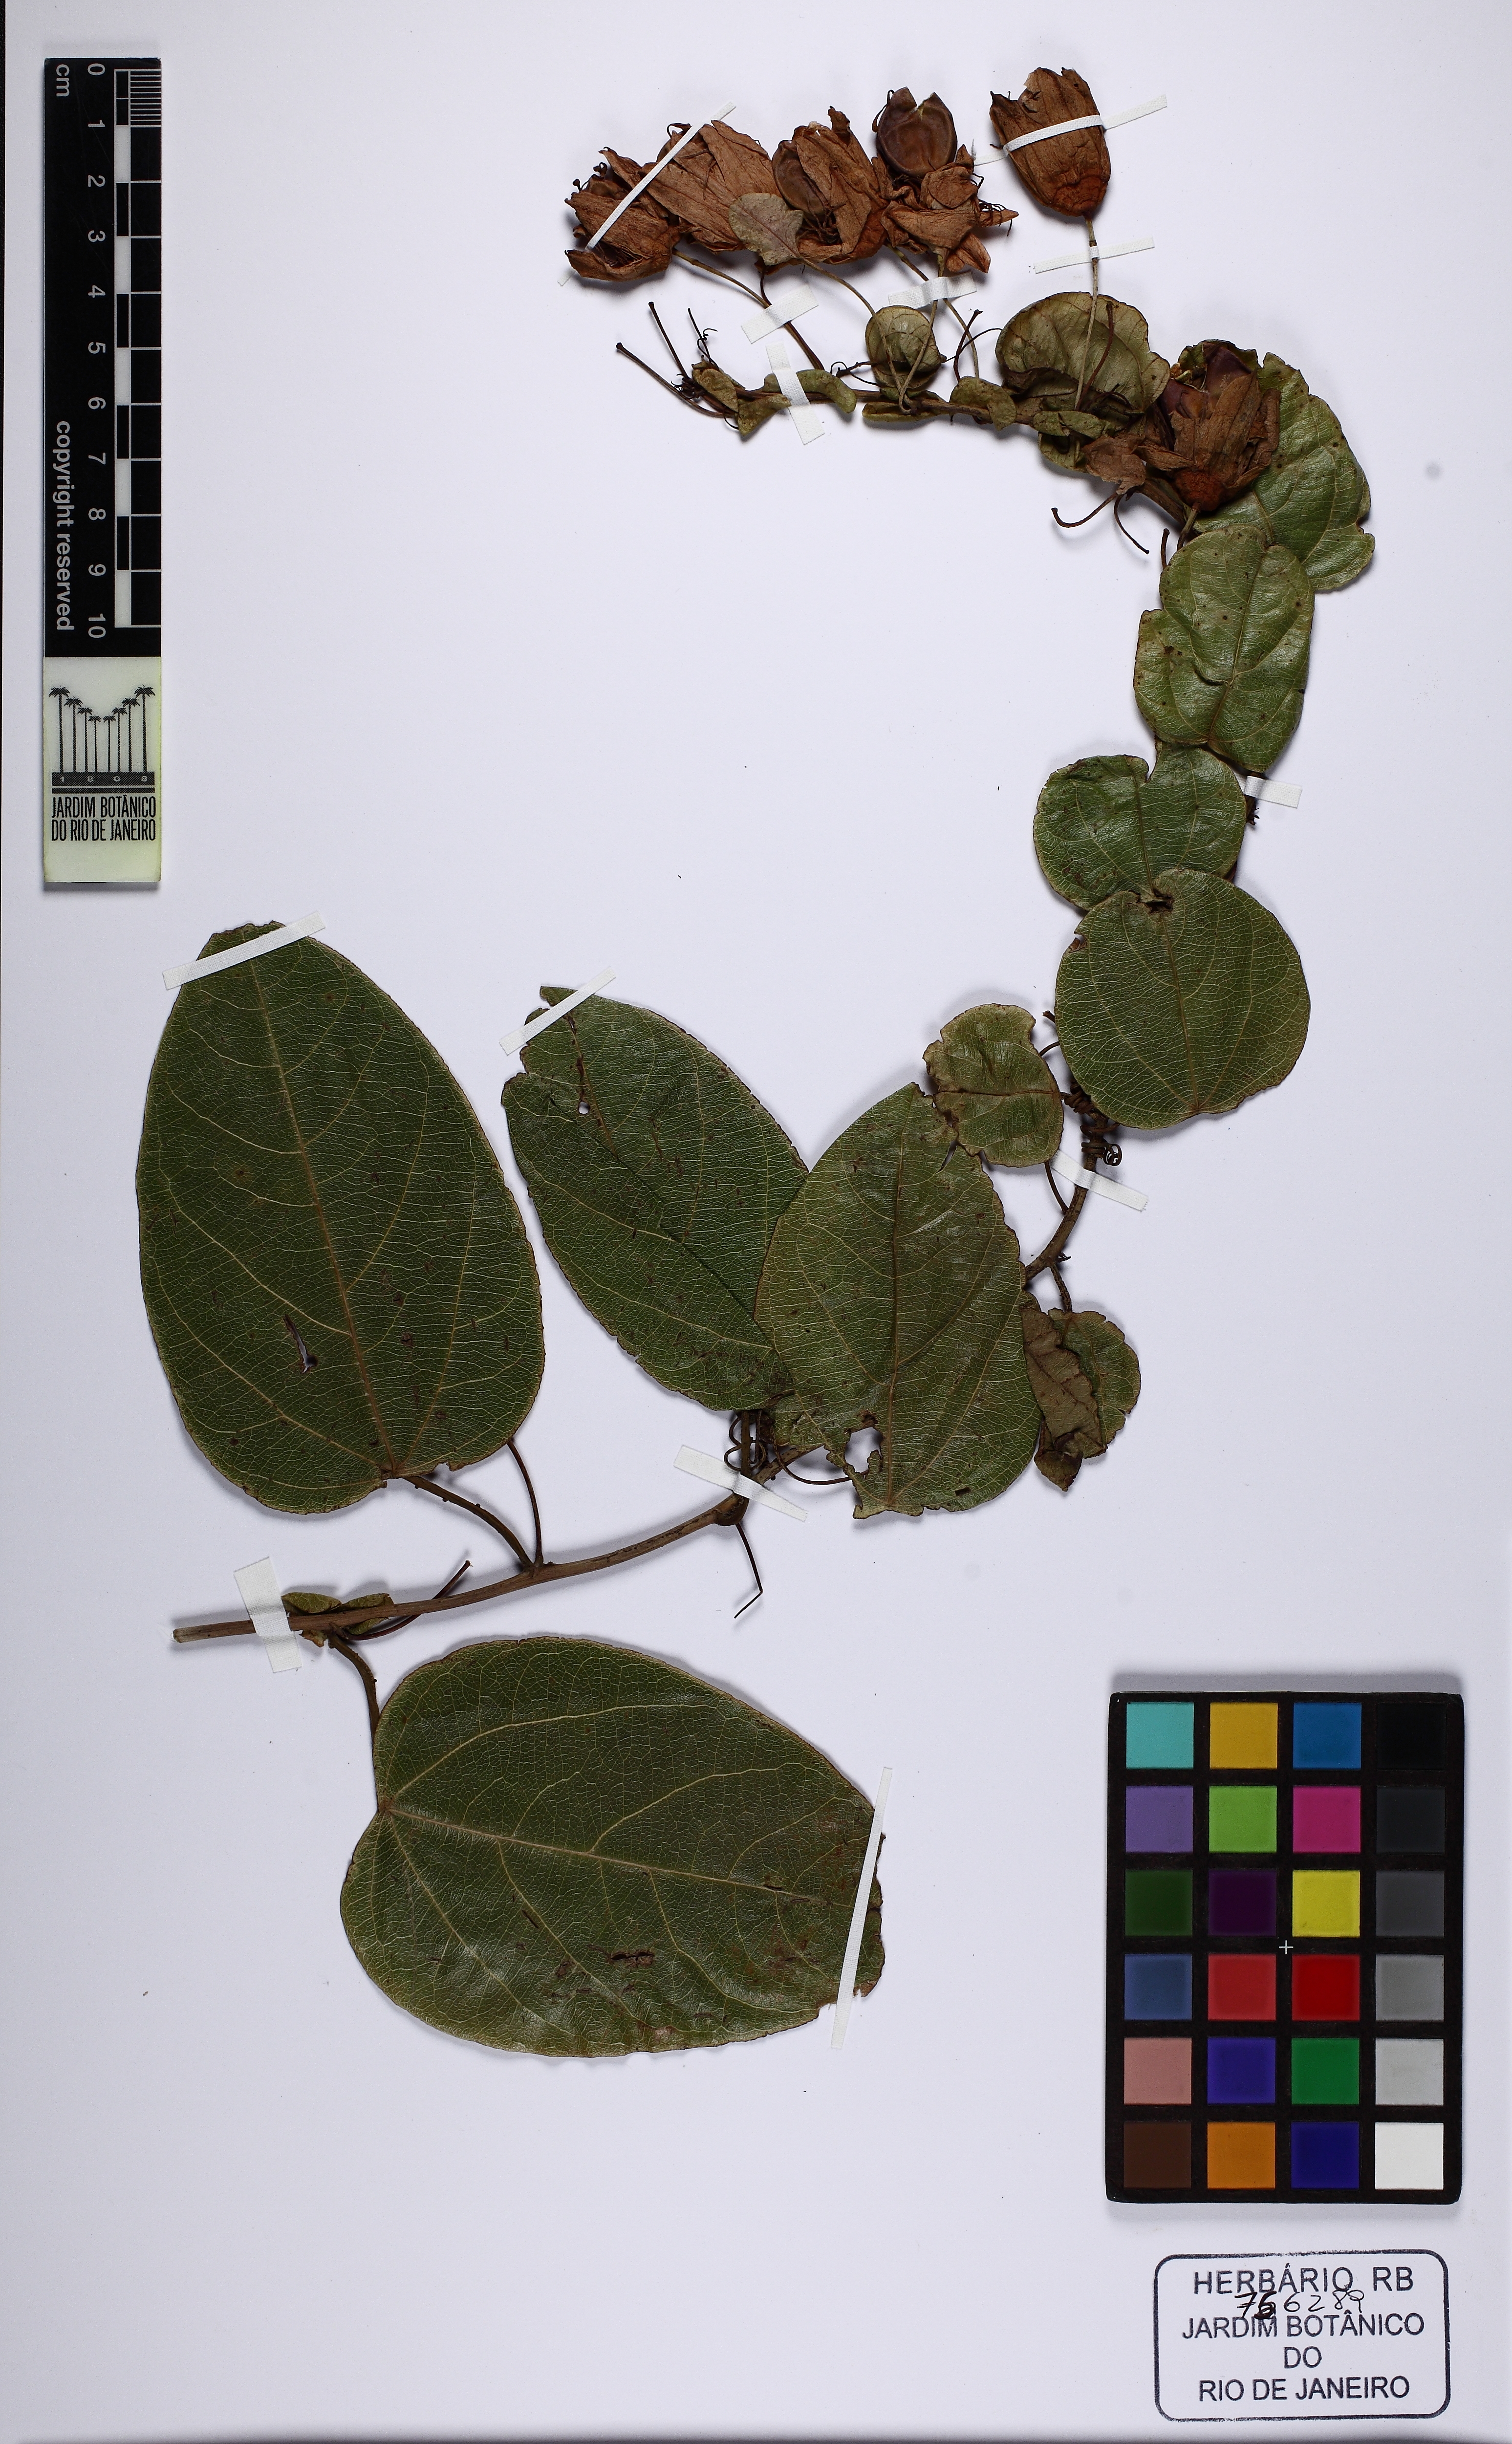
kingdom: Plantae
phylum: Tracheophyta
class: Magnoliopsida
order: Malpighiales
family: Passifloraceae
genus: Passiflora
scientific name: Passiflora
